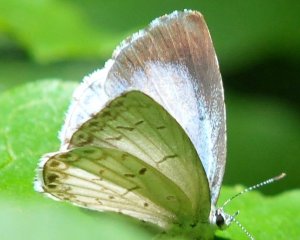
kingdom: Animalia
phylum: Arthropoda
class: Insecta
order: Lepidoptera
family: Lycaenidae
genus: Cyaniris
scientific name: Cyaniris neglecta
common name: Summer Azure
